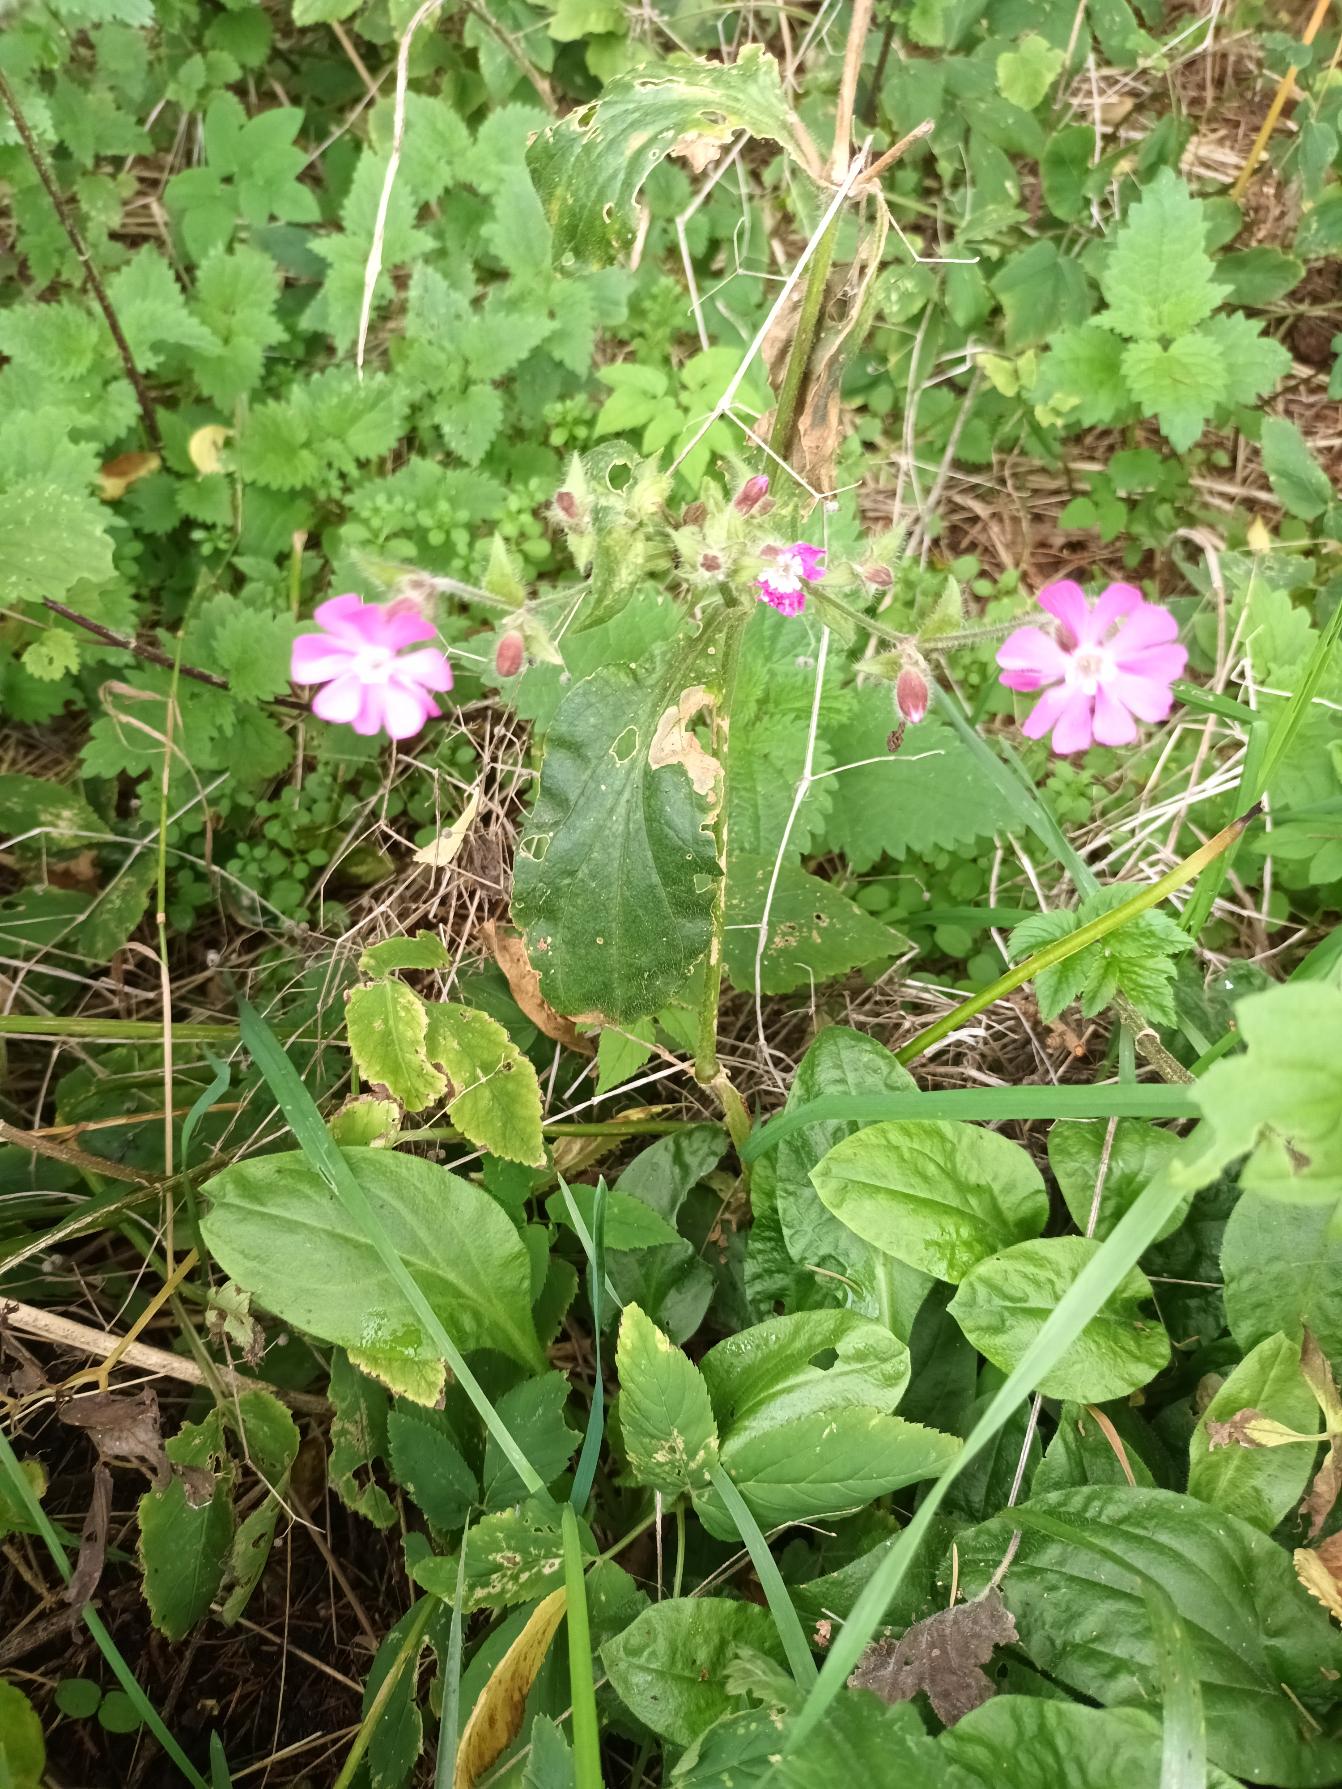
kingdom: Plantae
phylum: Tracheophyta
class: Magnoliopsida
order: Caryophyllales
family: Caryophyllaceae
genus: Silene
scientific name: Silene dioica
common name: Dagpragtstjerne
